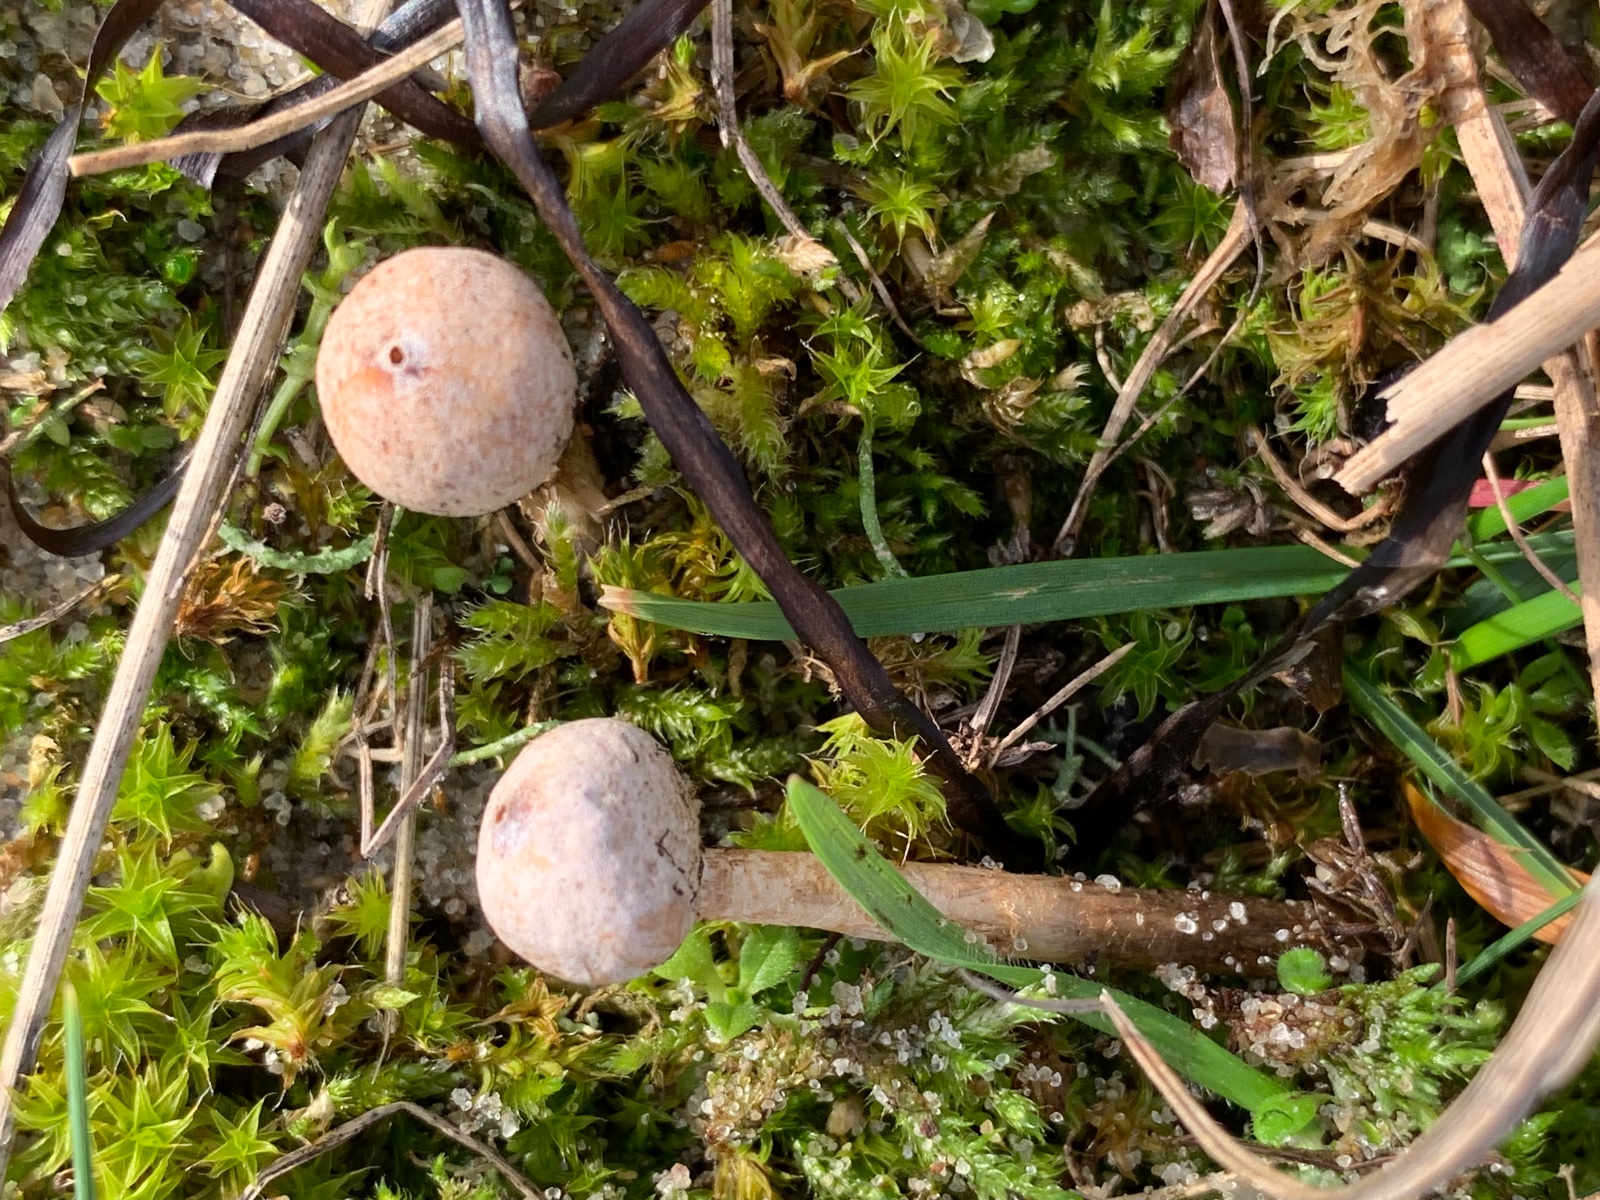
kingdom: Fungi
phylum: Basidiomycota
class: Agaricomycetes
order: Agaricales
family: Agaricaceae
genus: Tulostoma
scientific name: Tulostoma brumale
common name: vinter-stilkbovist
